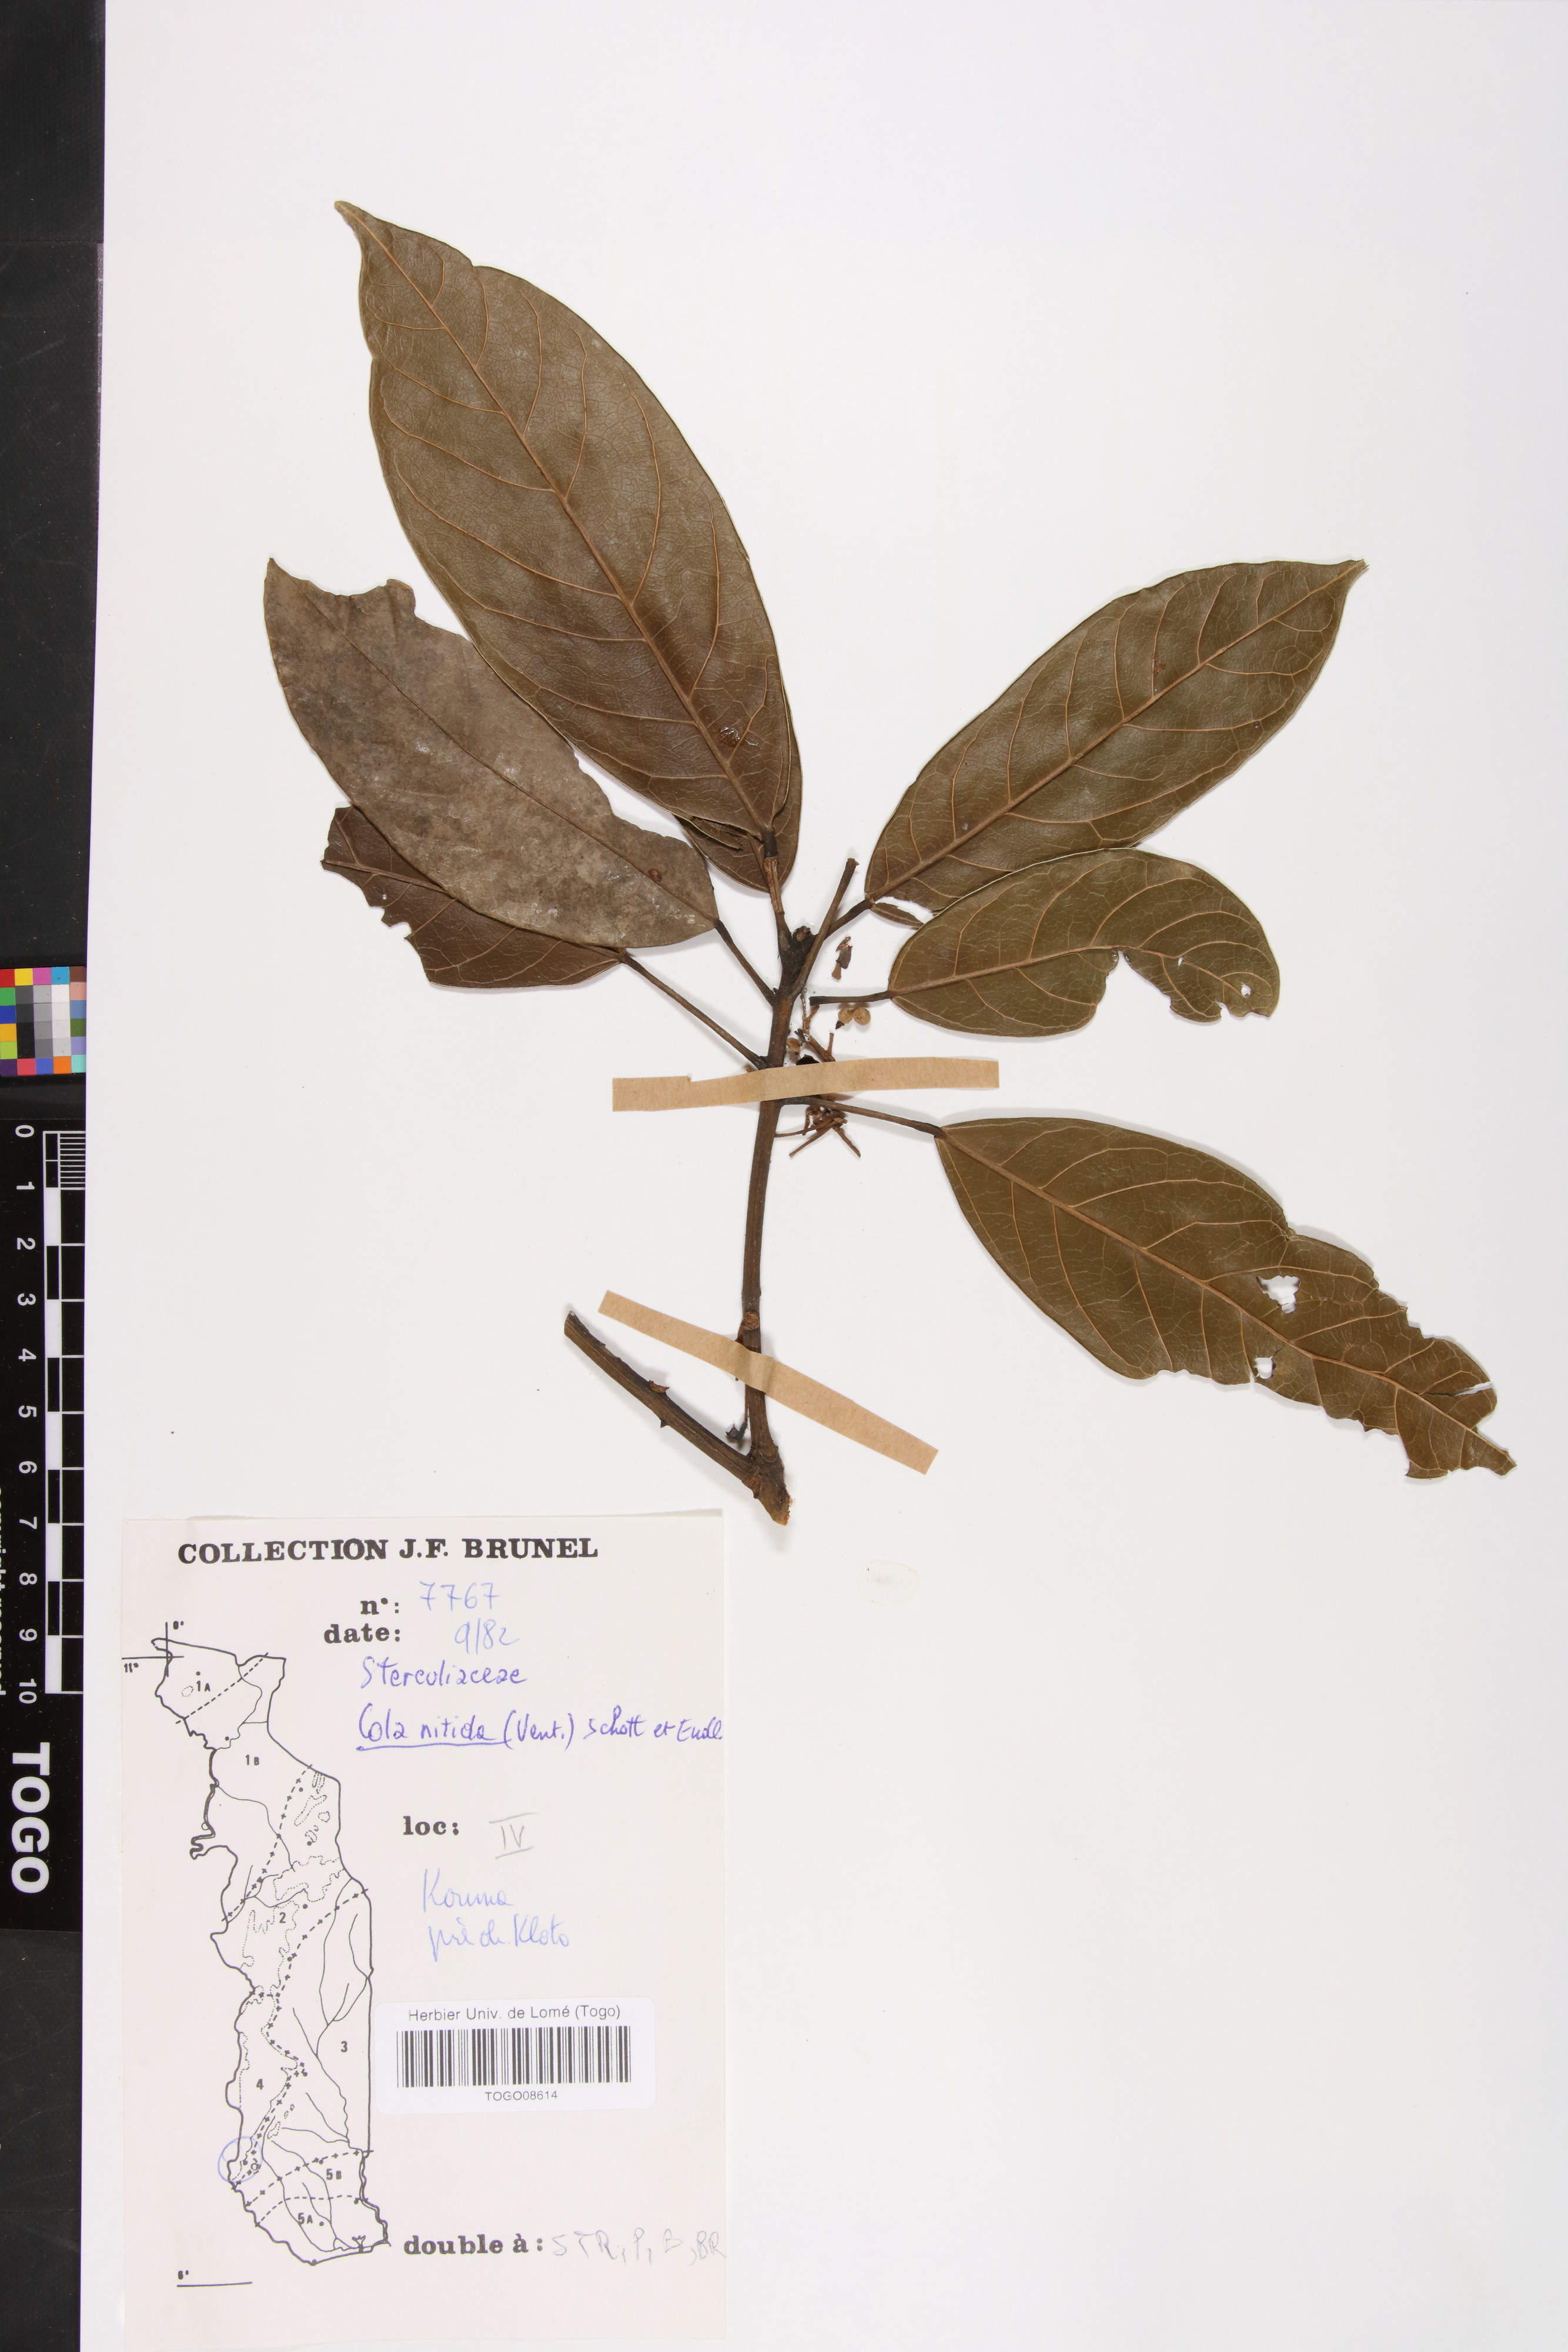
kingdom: Plantae
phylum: Tracheophyta
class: Magnoliopsida
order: Malvales
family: Malvaceae
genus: Cola
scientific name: Cola nitida
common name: Kola nut
